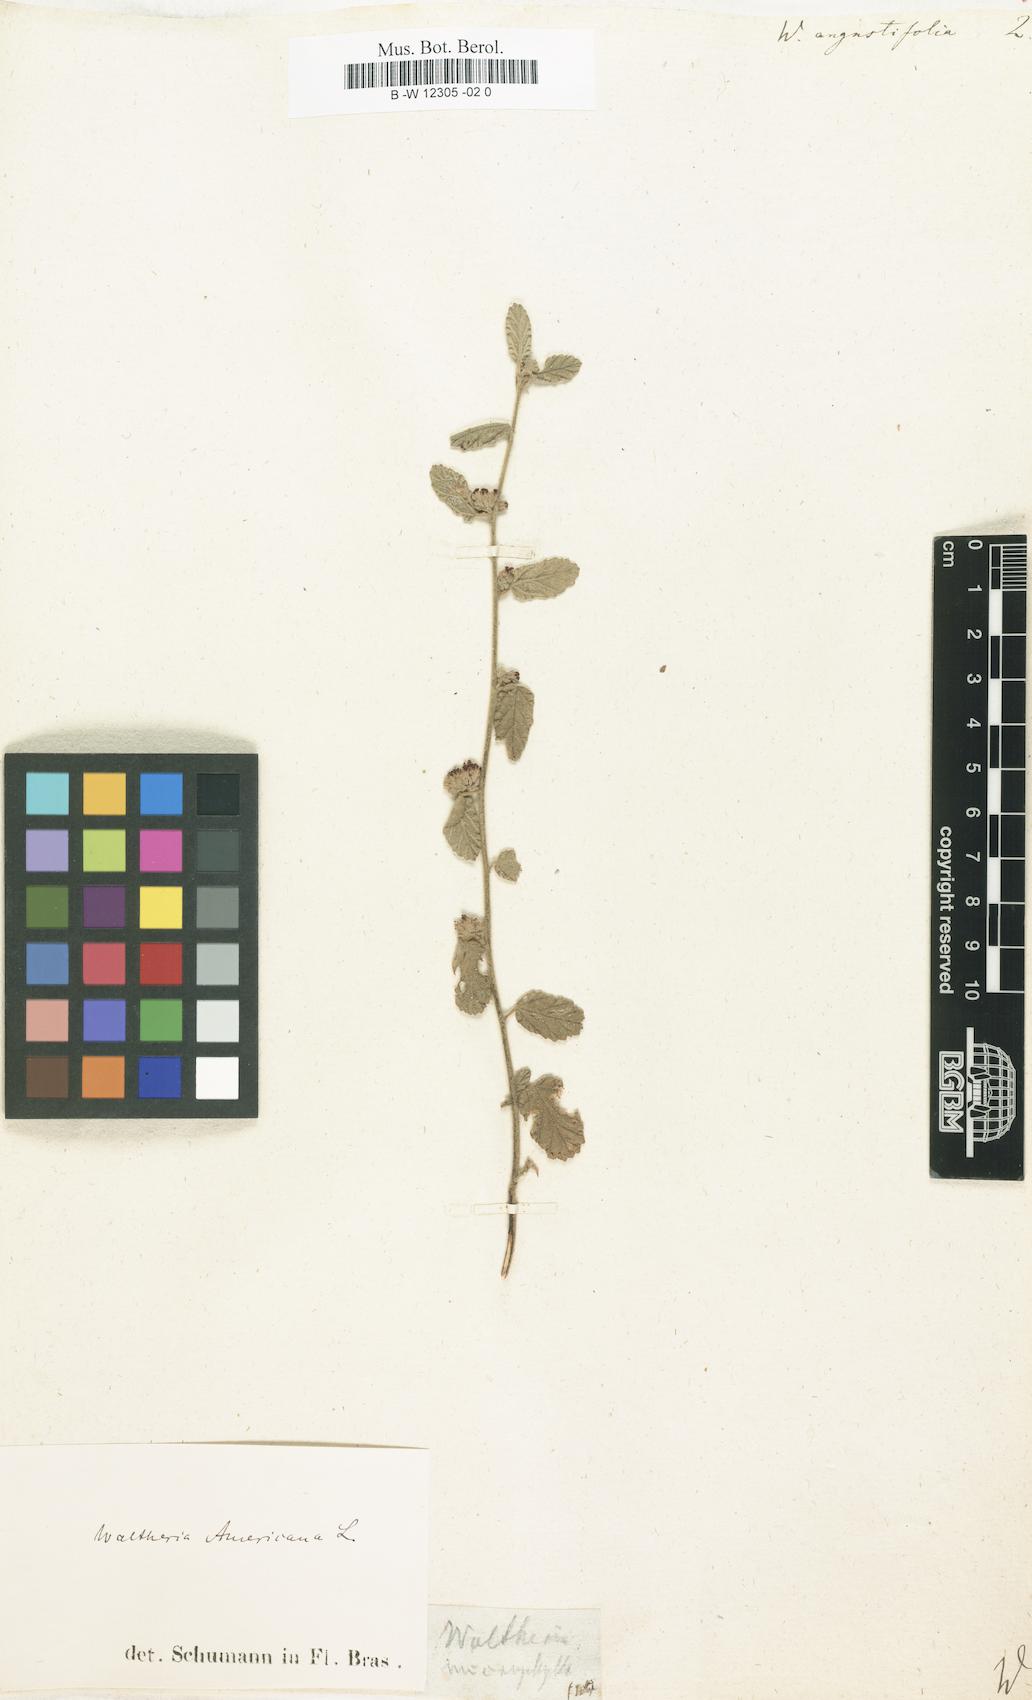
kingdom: Plantae
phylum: Tracheophyta
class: Magnoliopsida
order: Malvales
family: Malvaceae
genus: Melochia
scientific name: Melochia spicata
